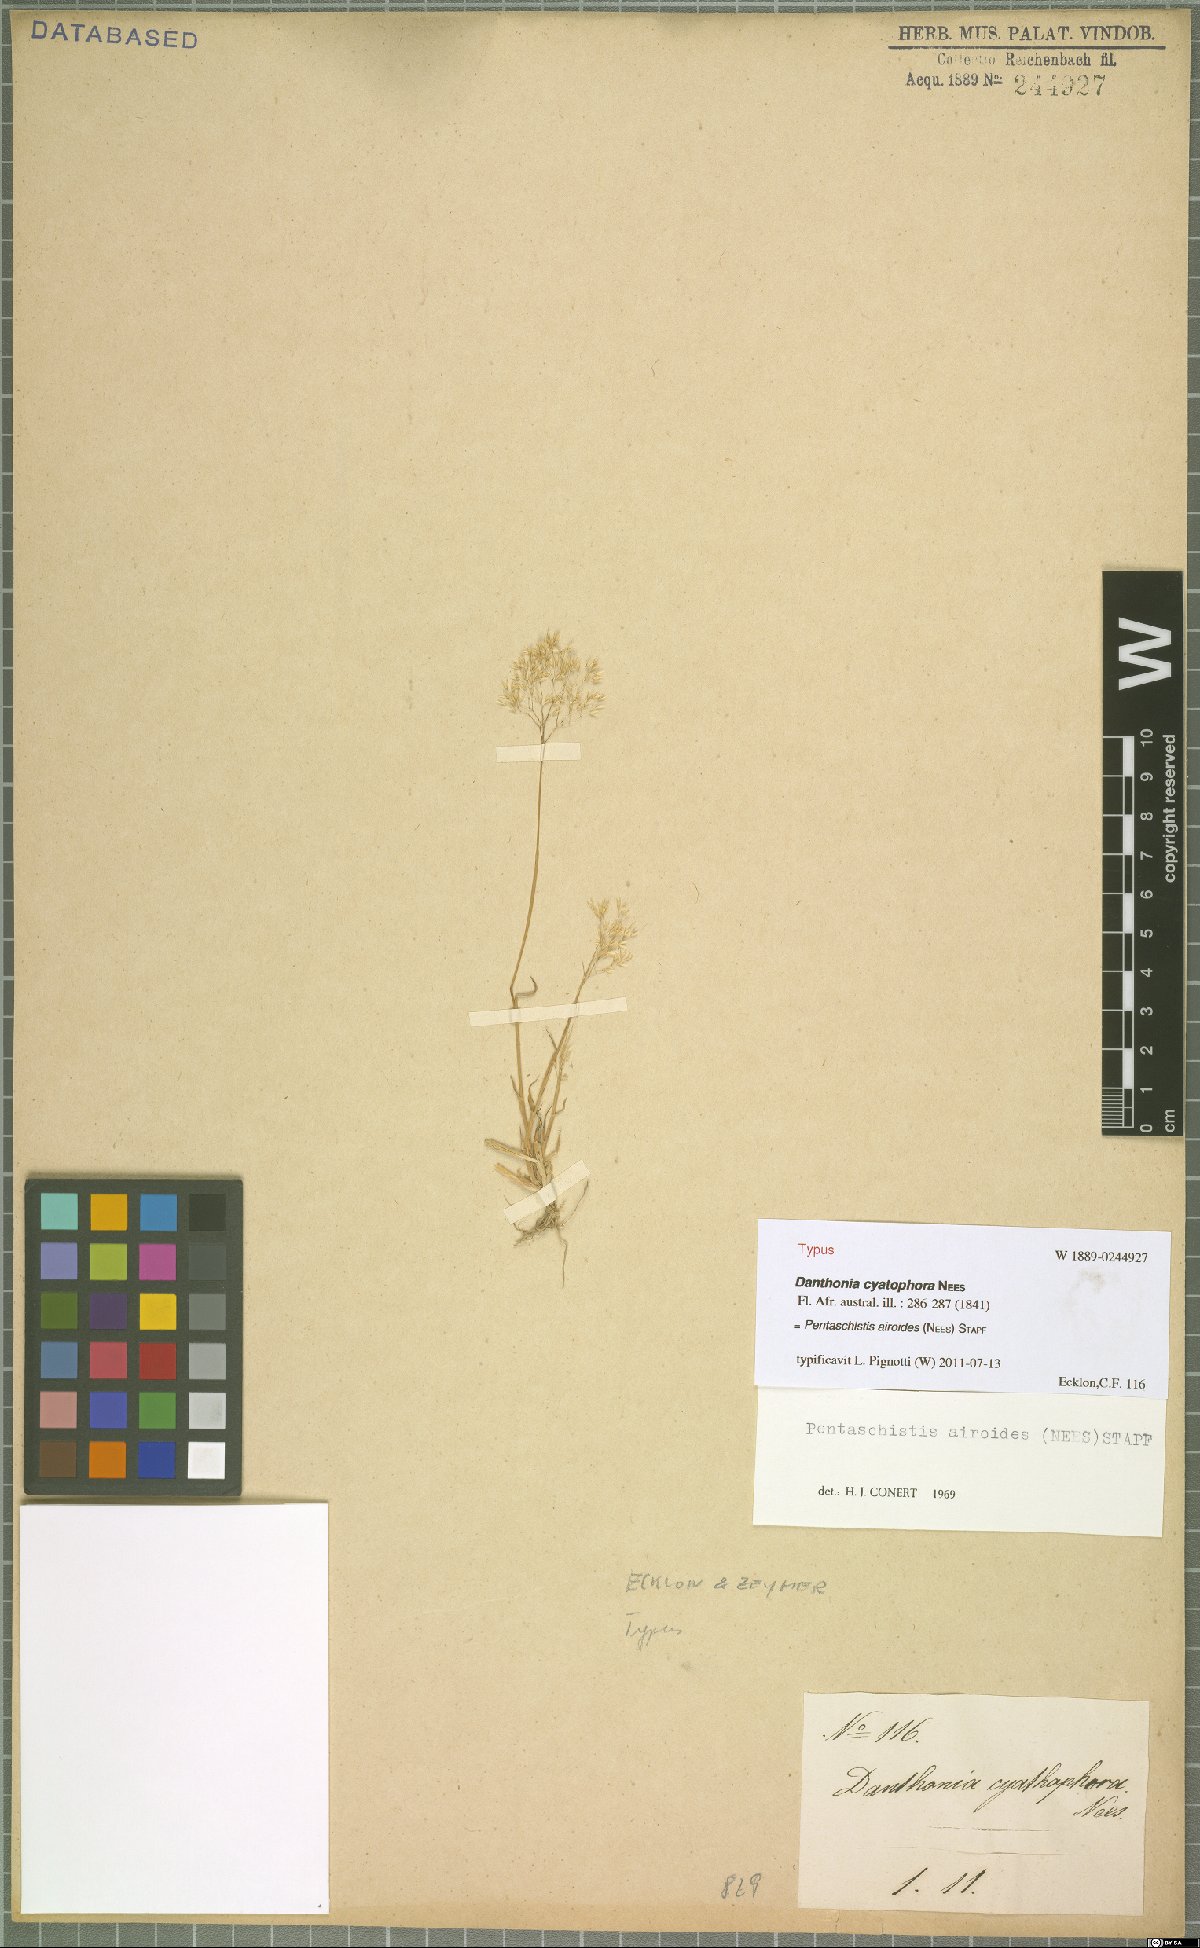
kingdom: Plantae
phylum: Tracheophyta
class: Liliopsida
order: Poales
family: Poaceae
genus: Pentameris
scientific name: Pentameris airoides
